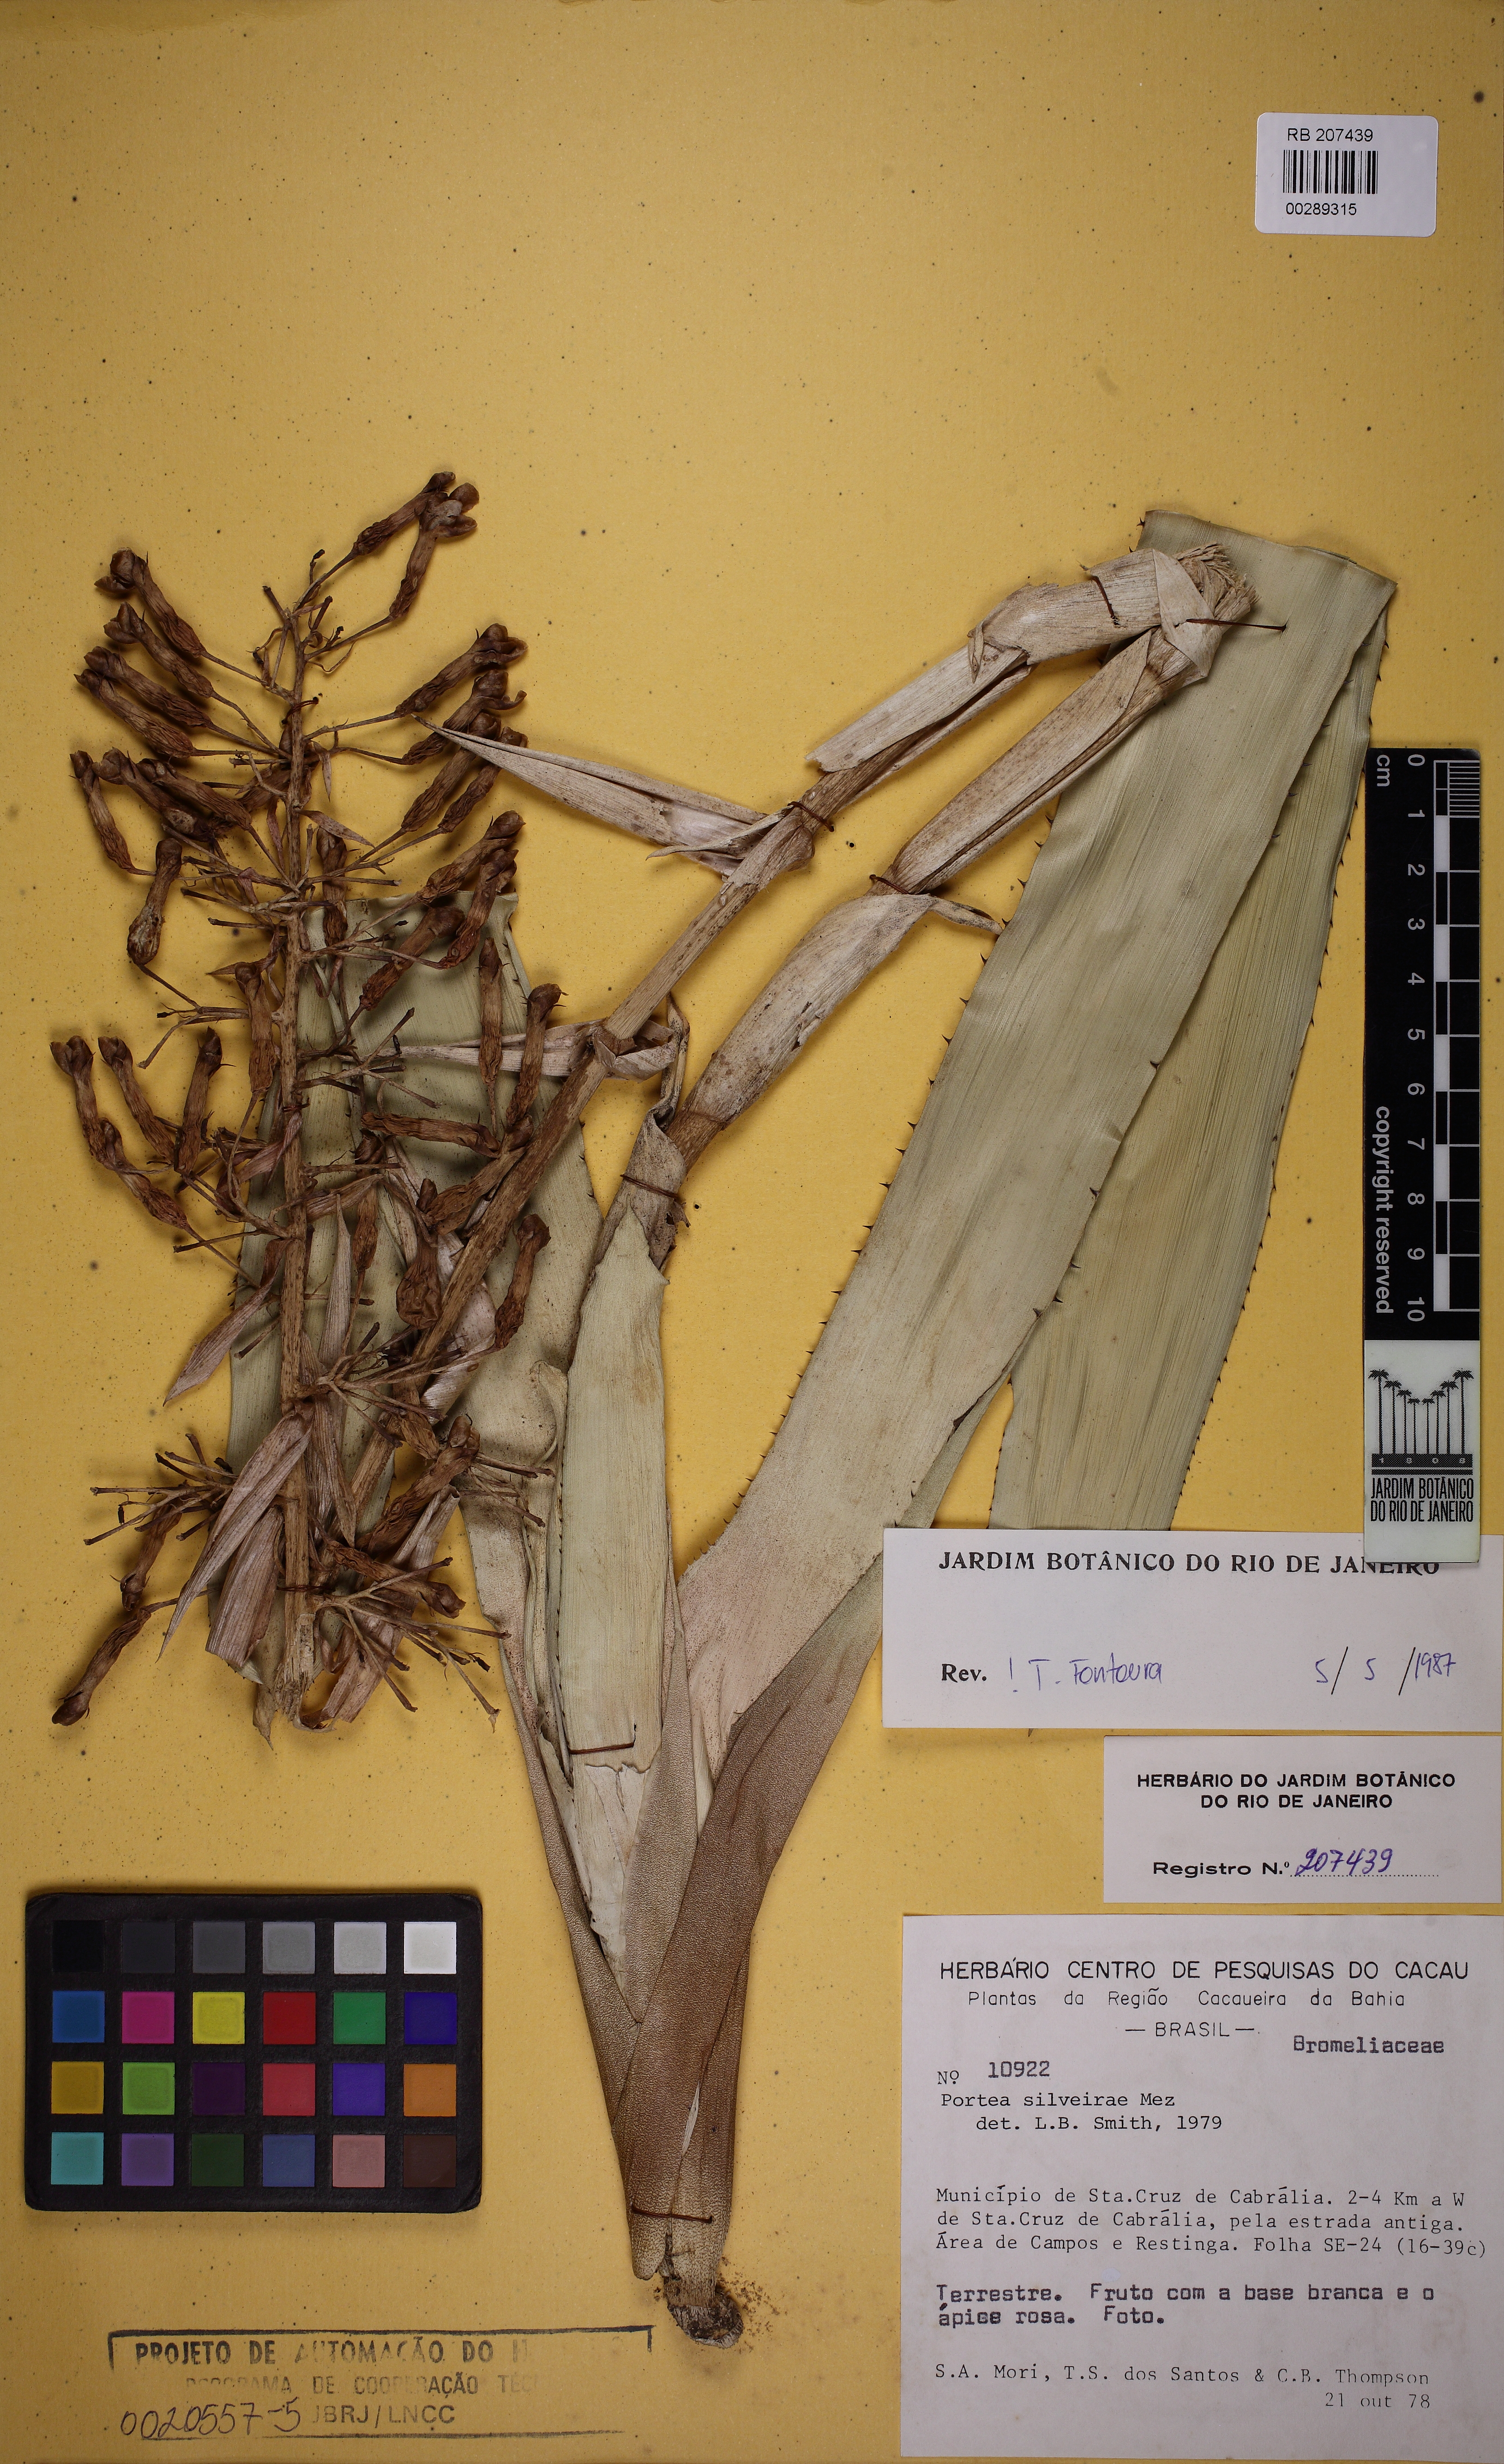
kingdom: Plantae
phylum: Tracheophyta
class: Liliopsida
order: Poales
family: Bromeliaceae
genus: Portea
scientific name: Portea silveirae
